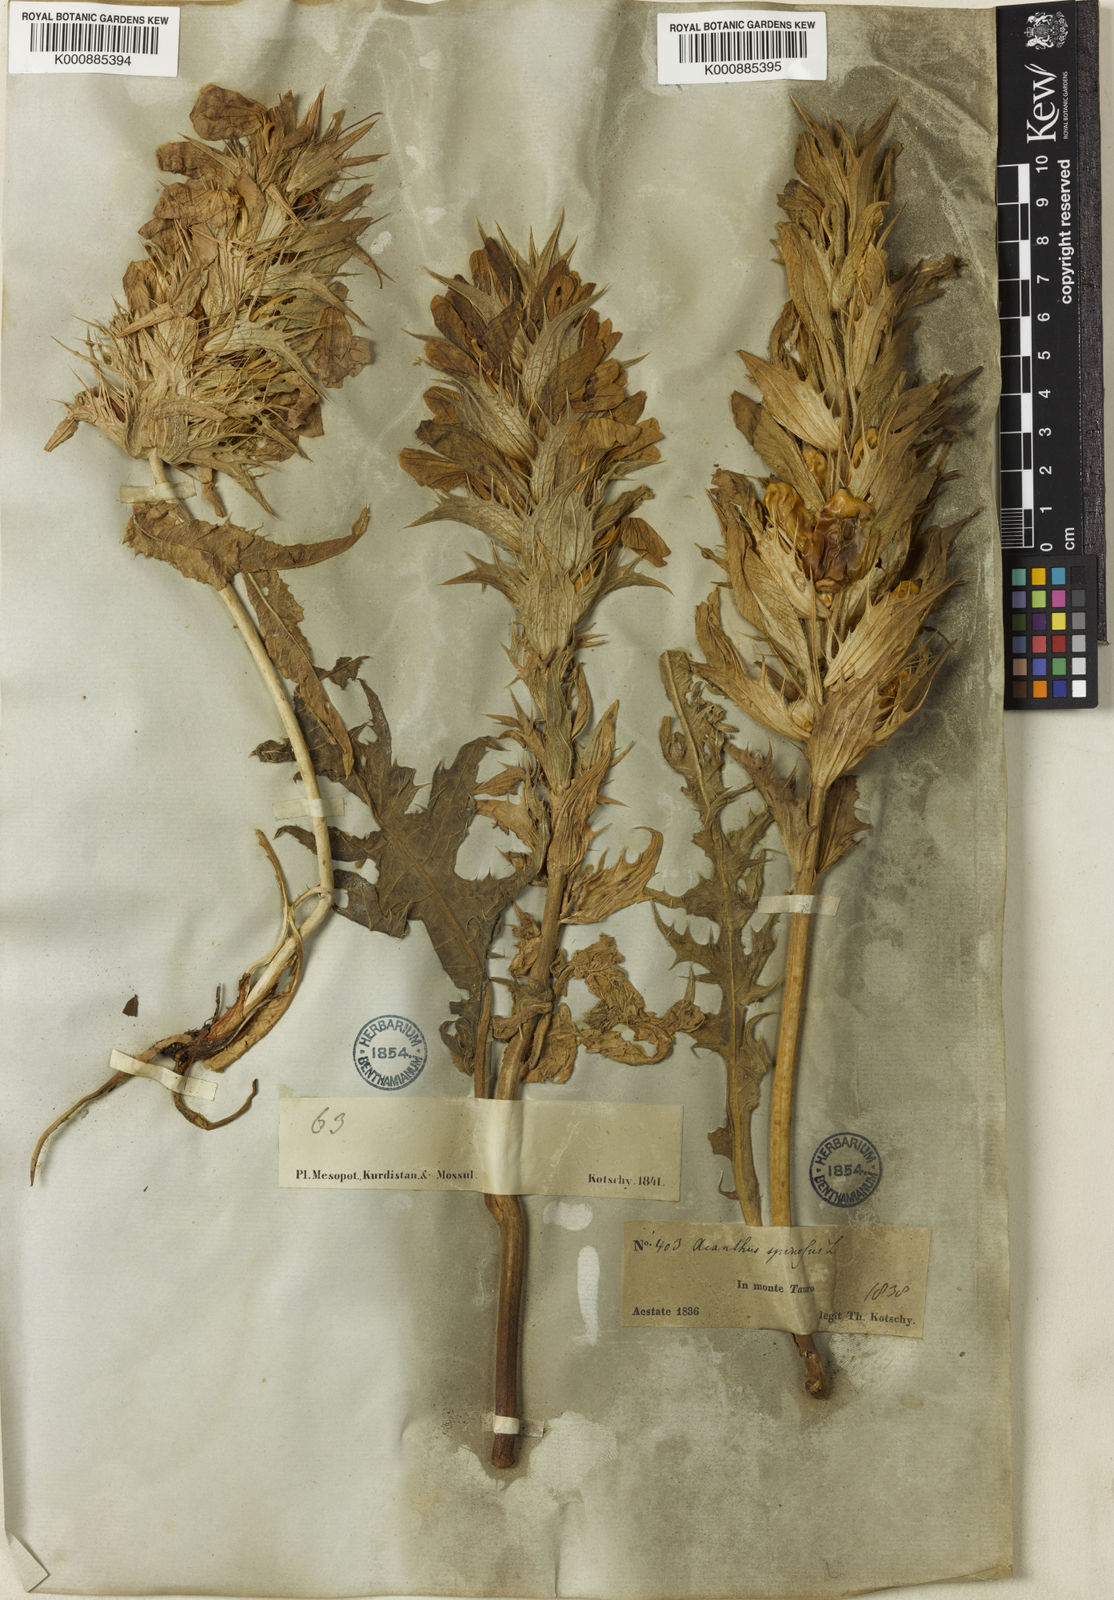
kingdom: Plantae
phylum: Tracheophyta
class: Magnoliopsida
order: Lamiales
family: Acanthaceae
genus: Acanthus
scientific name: Acanthus hirsutus
